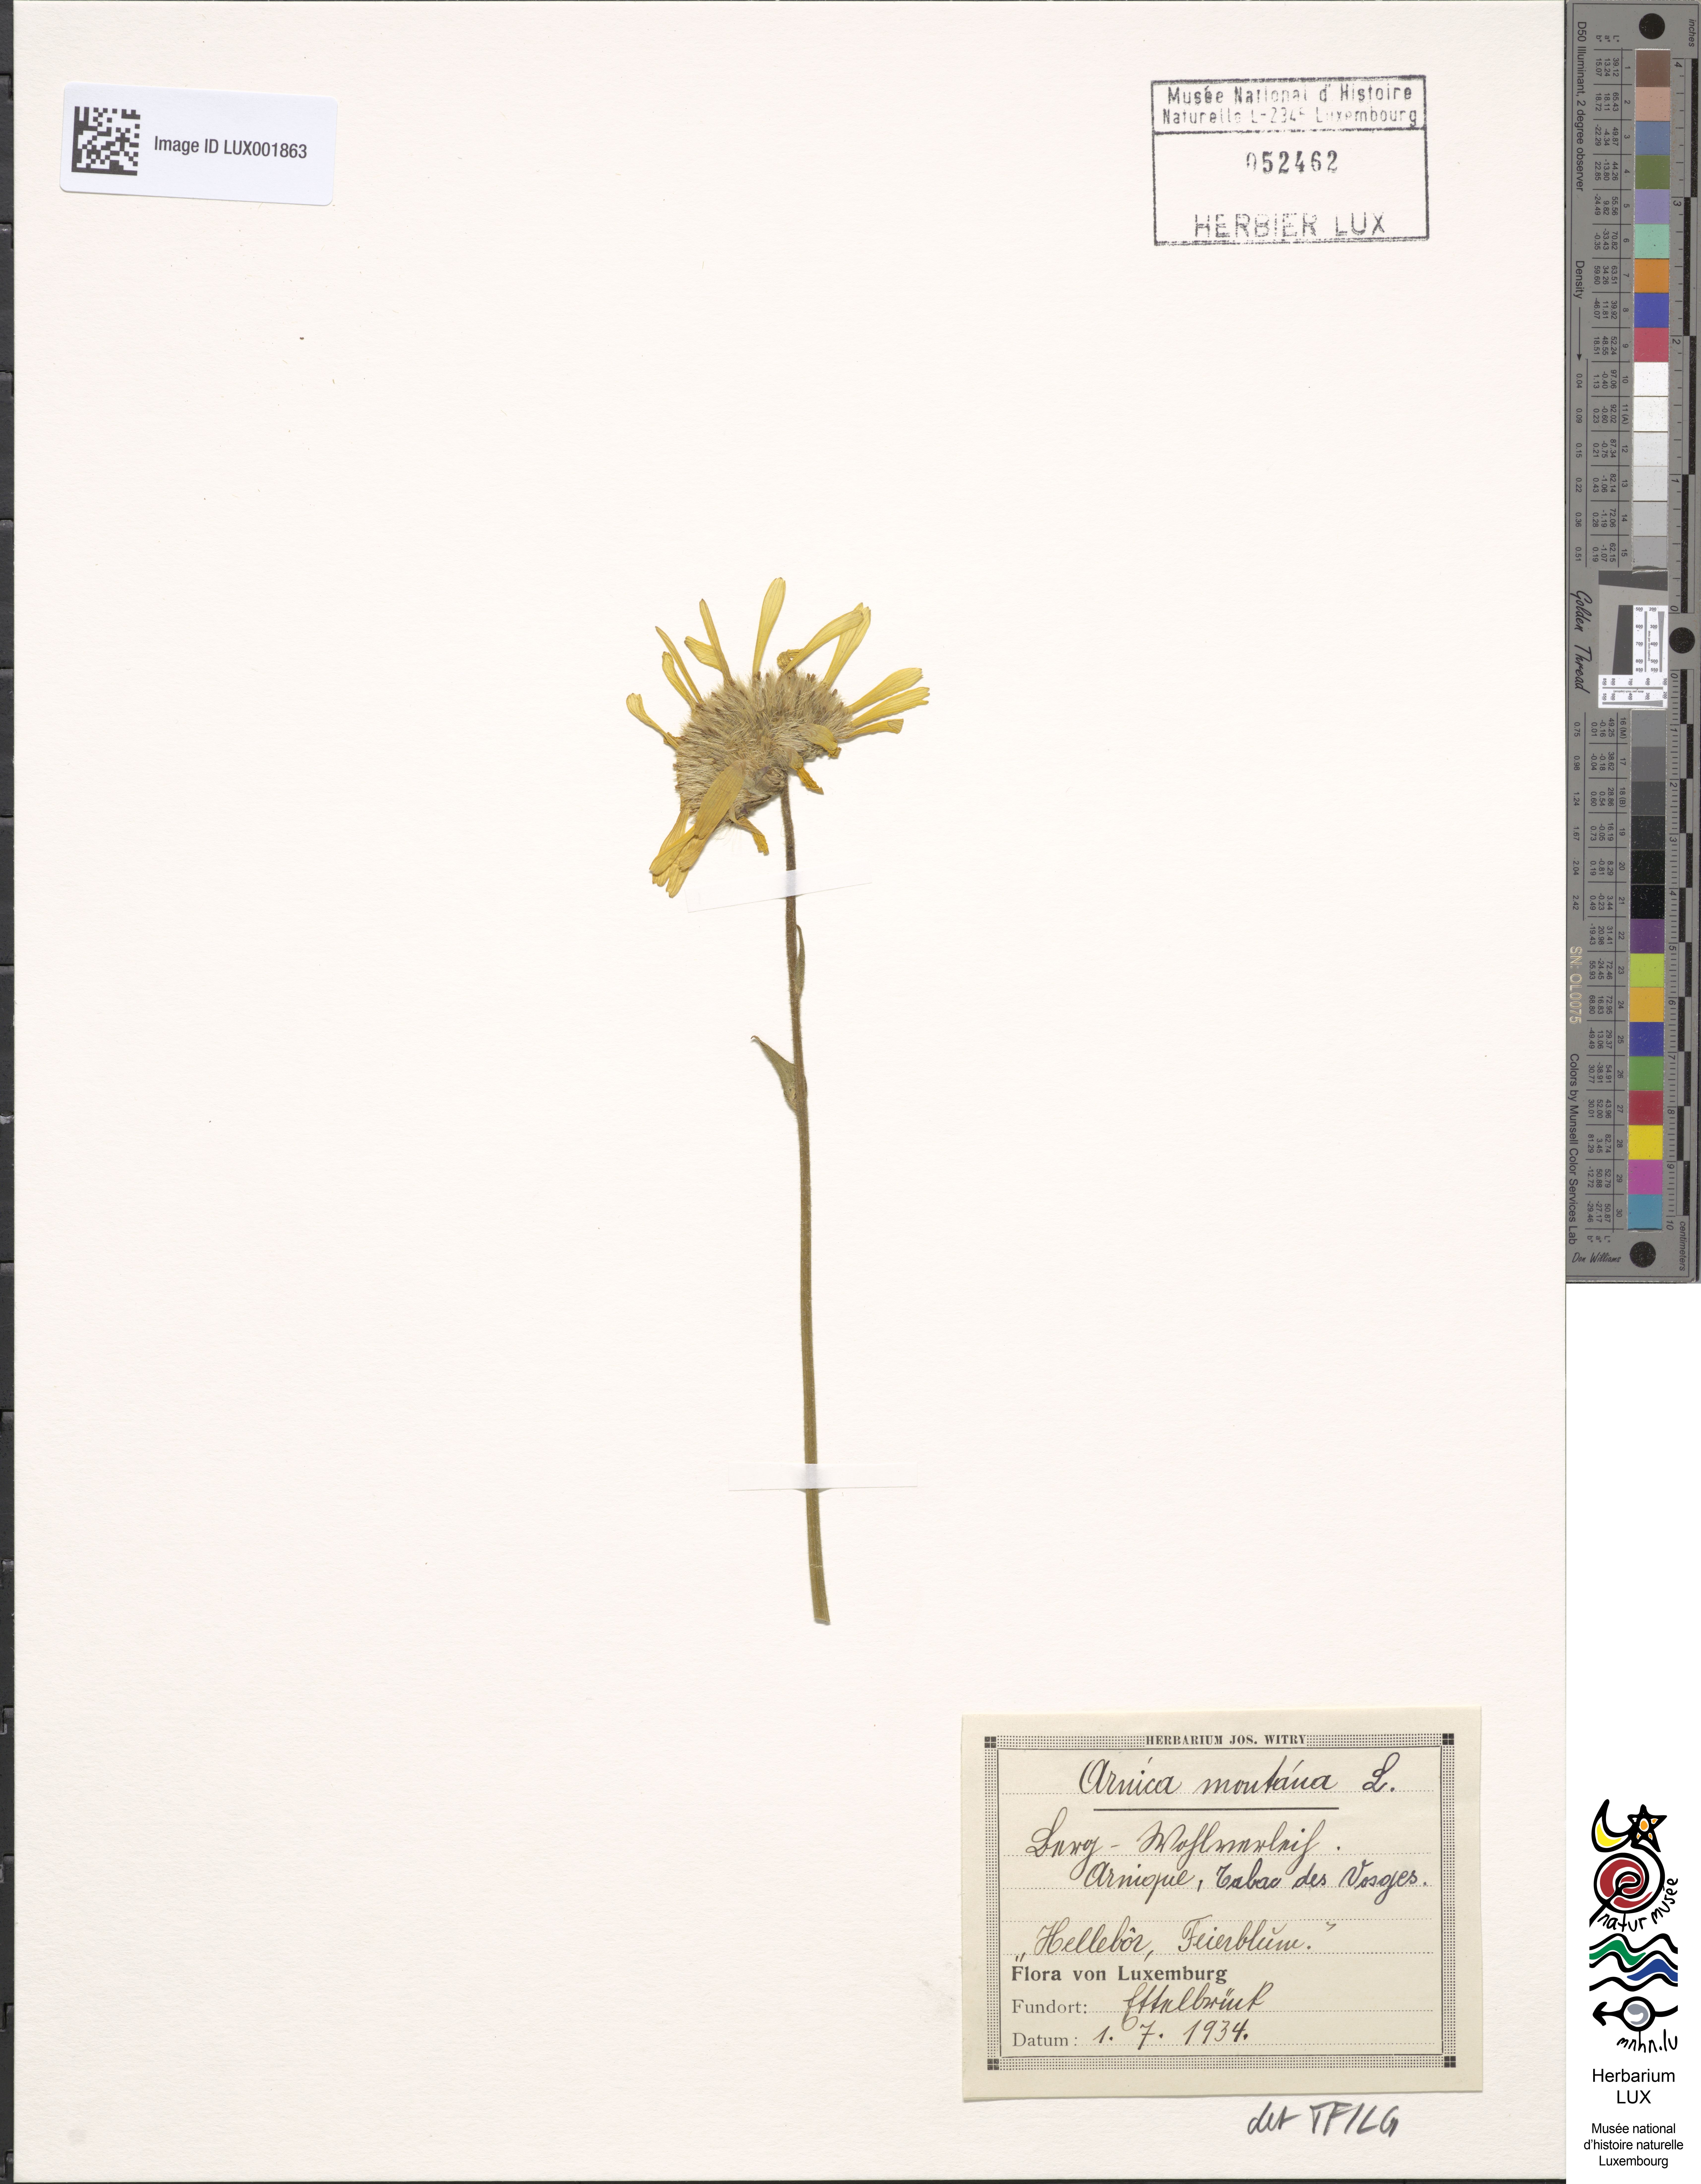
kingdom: Plantae
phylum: Tracheophyta
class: Magnoliopsida
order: Asterales
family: Asteraceae
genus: Arnica
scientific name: Arnica montana
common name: Leopard's bane
